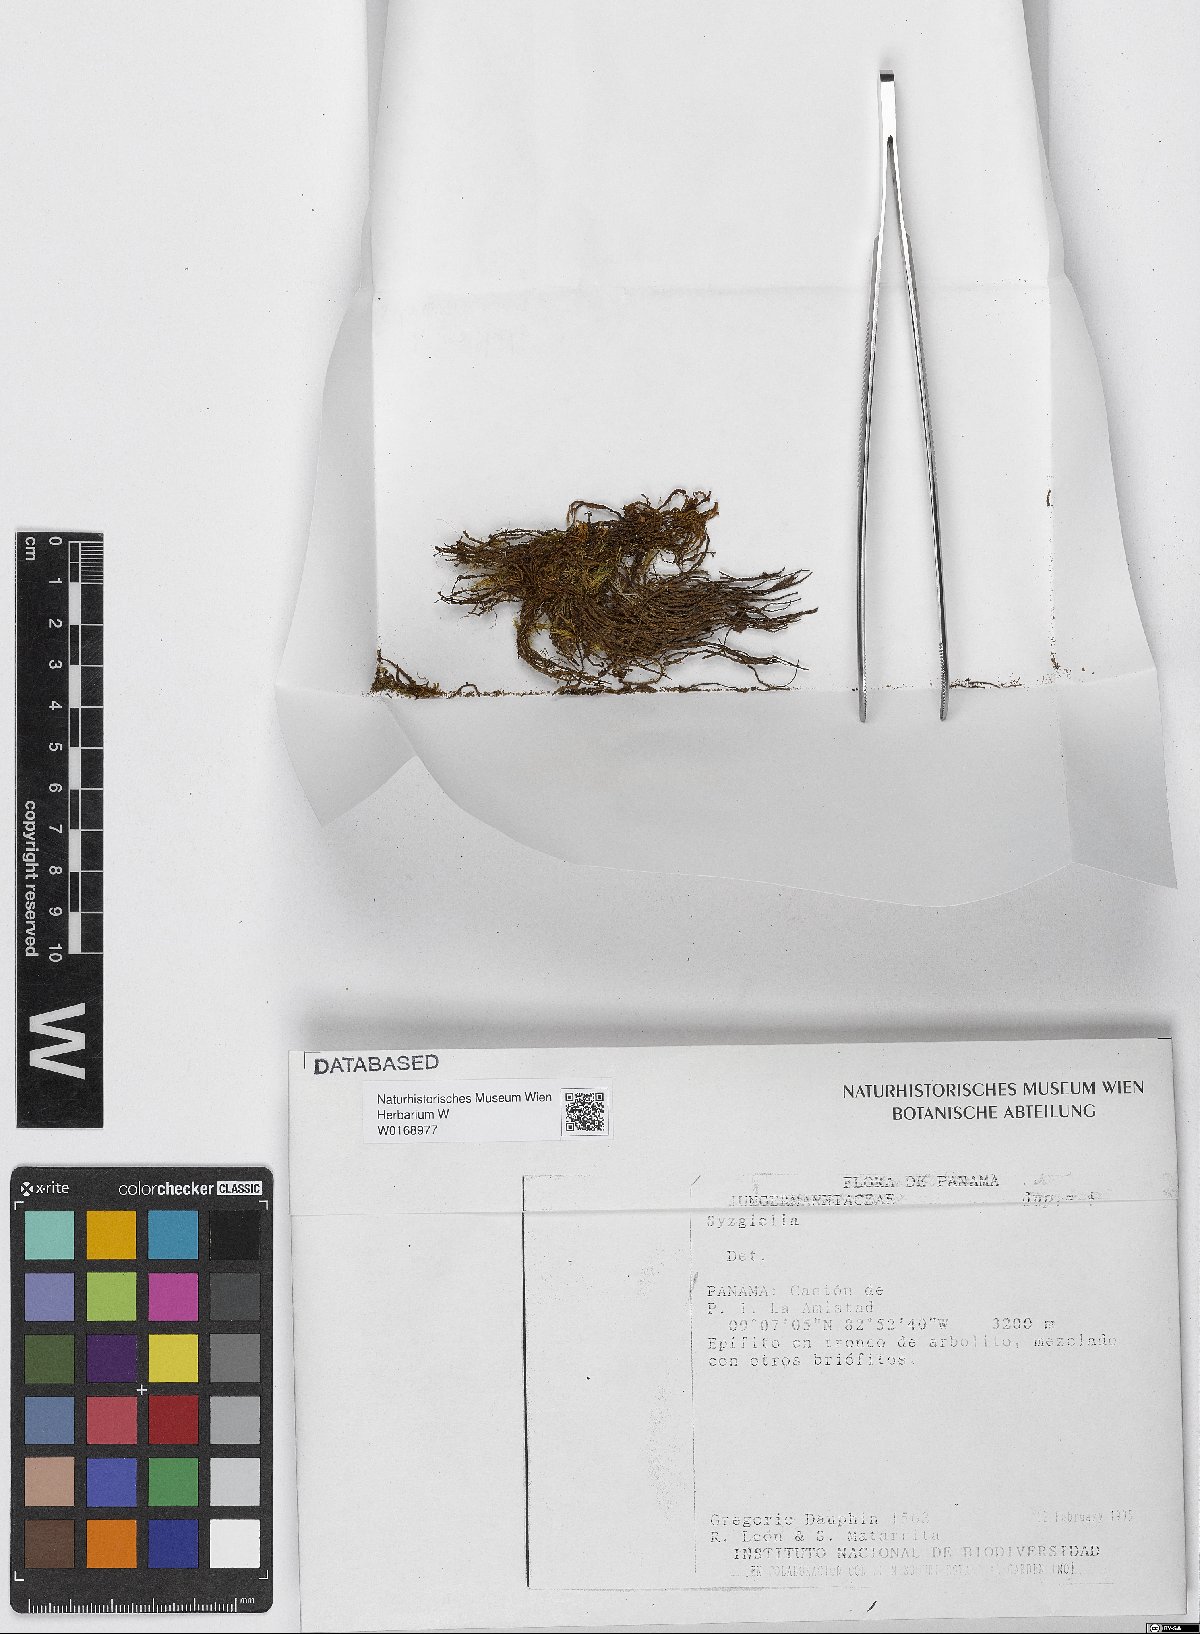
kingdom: Plantae
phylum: Marchantiophyta
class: Jungermanniopsida
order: Jungermanniales
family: Adelanthaceae
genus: Syzygiella
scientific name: Syzygiella
